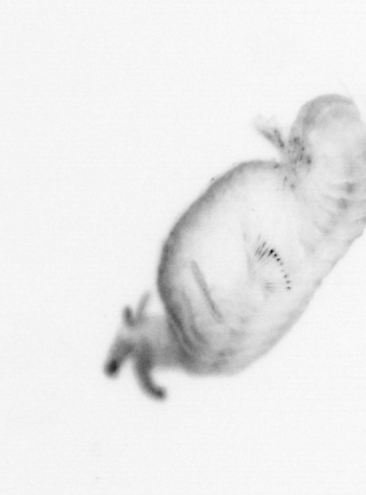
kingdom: Animalia
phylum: Annelida
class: Polychaeta
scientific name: Polychaeta
